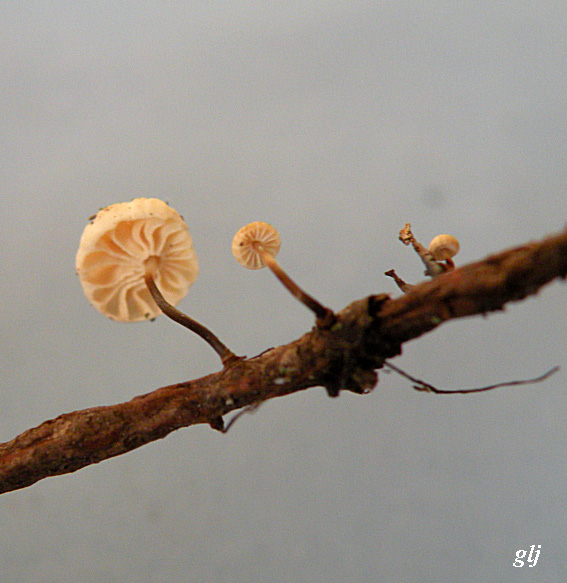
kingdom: Fungi
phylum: Basidiomycota
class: Agaricomycetes
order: Agaricales
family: Marasmiaceae
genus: Marasmius
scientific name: Marasmius rotula
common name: hjul-bruskhat
